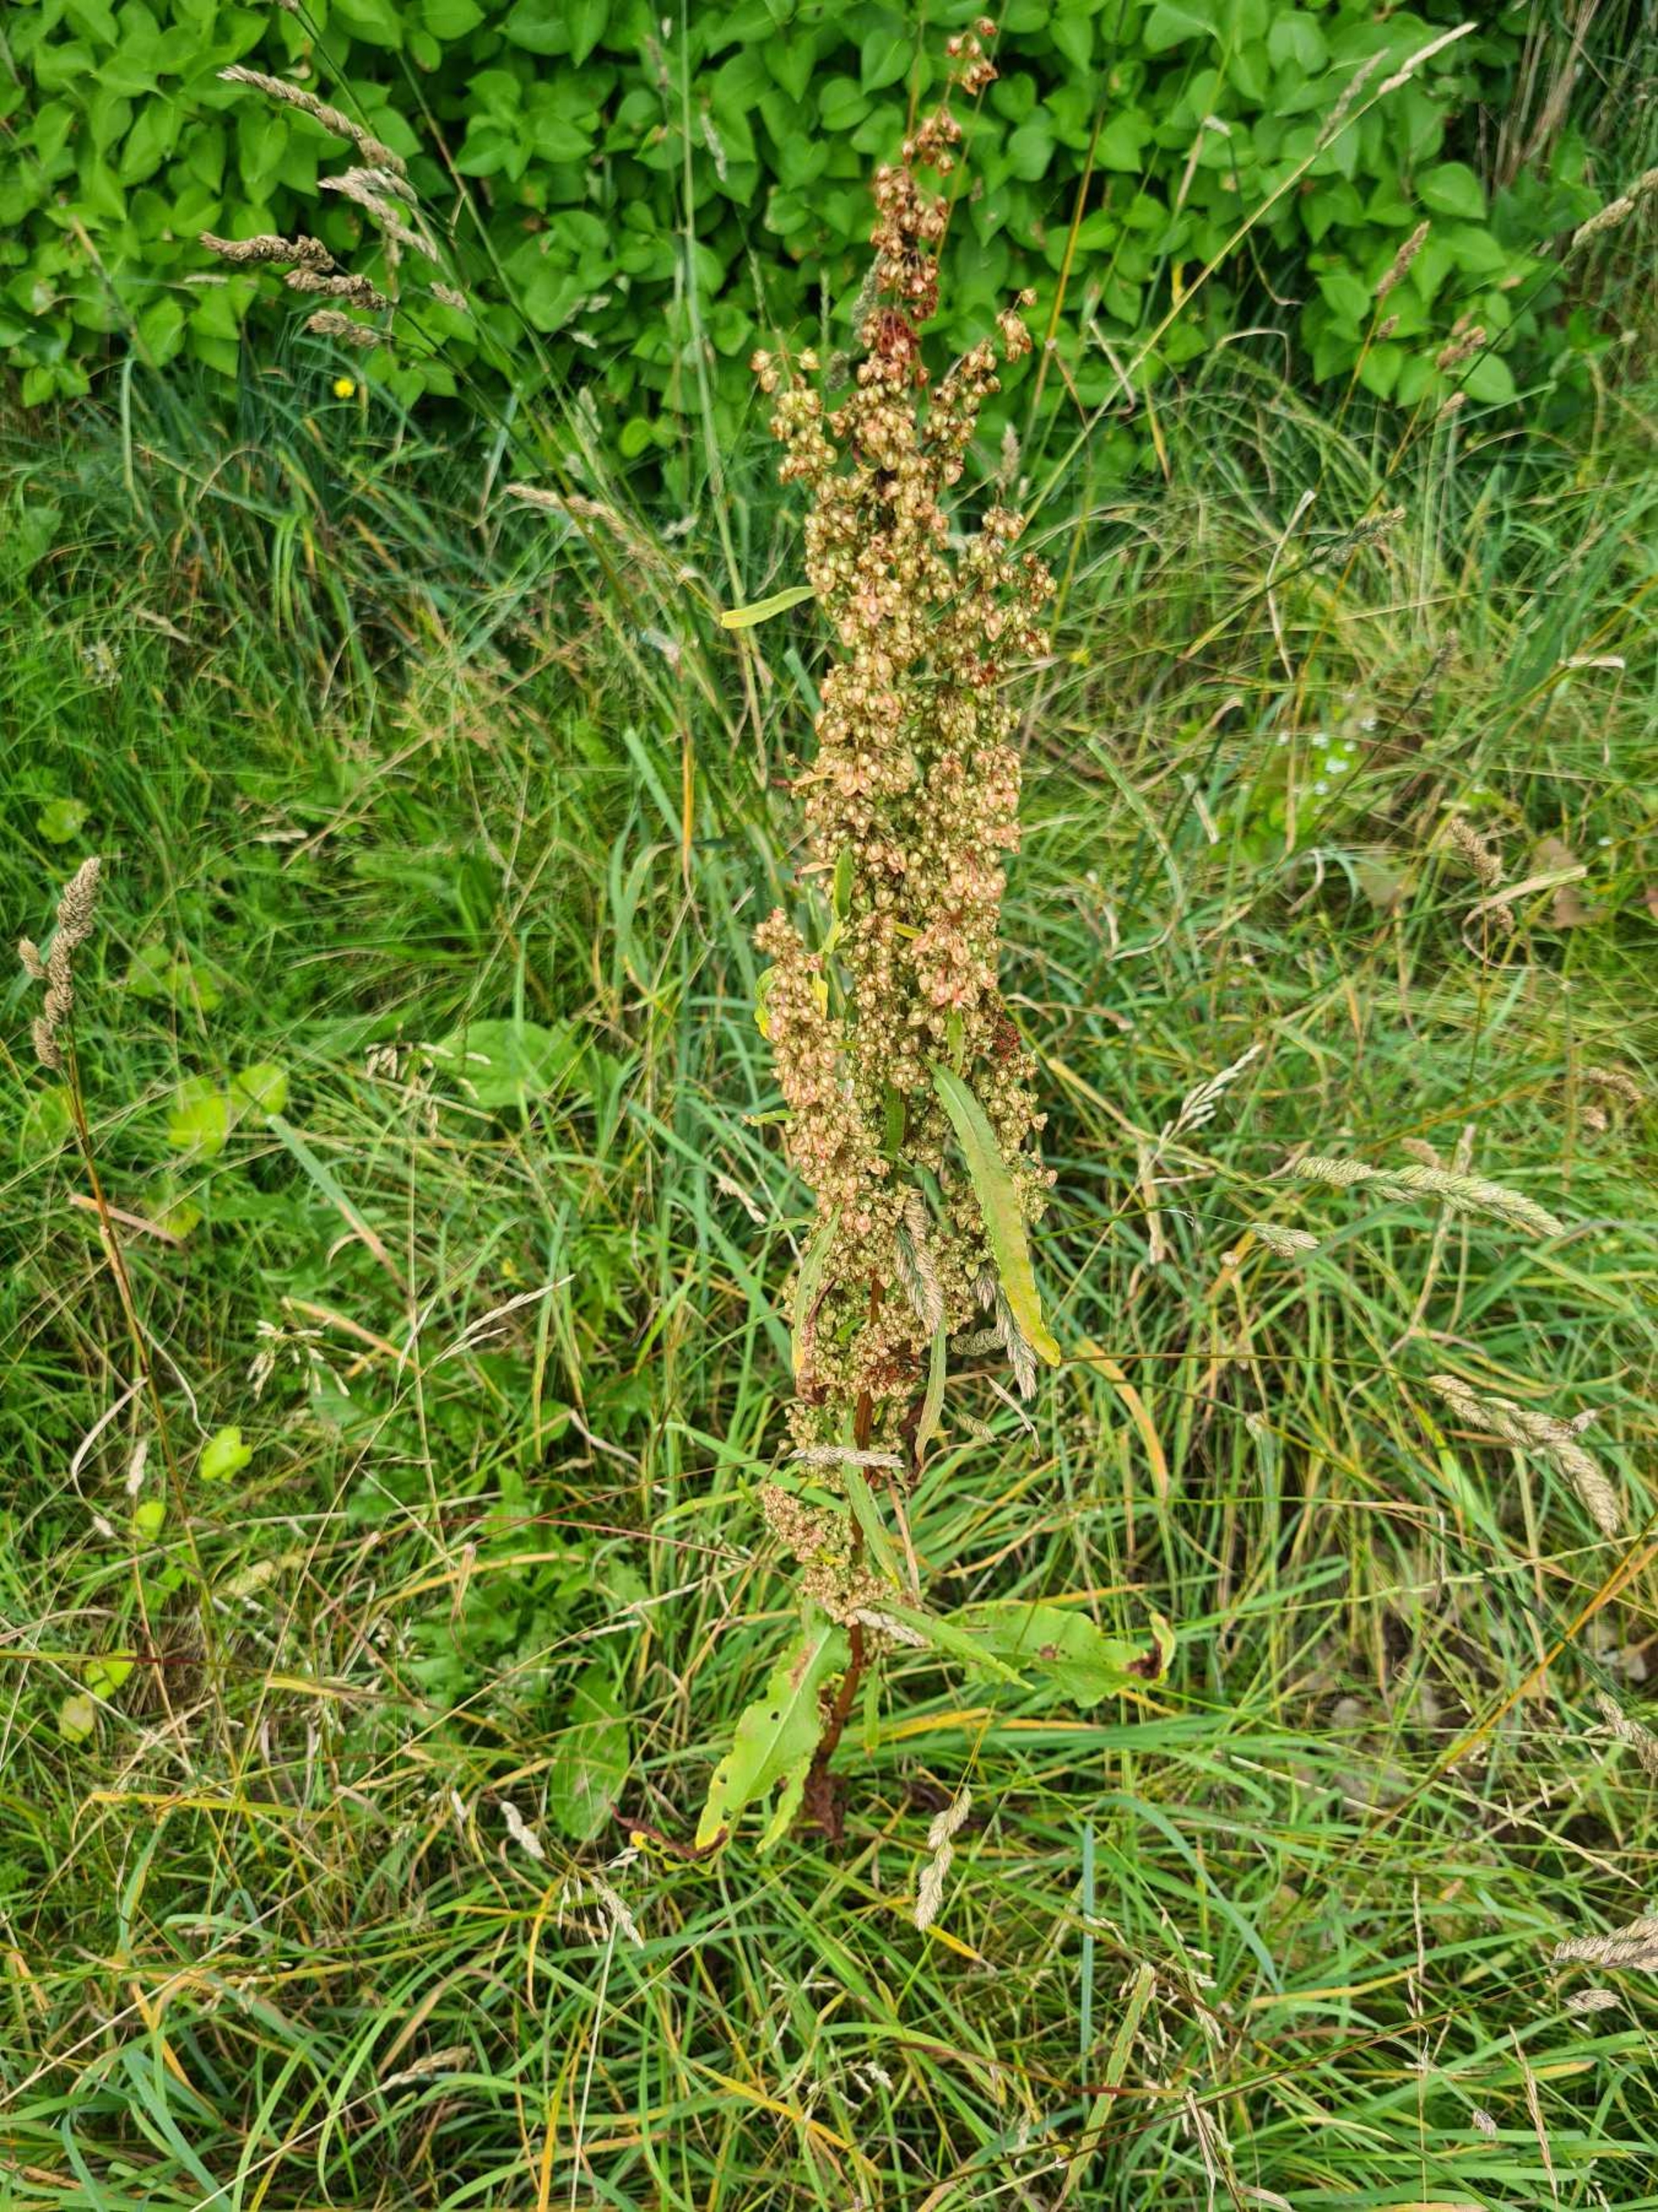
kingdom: Plantae
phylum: Tracheophyta
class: Magnoliopsida
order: Caryophyllales
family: Polygonaceae
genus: Rumex
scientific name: Rumex crispus
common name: Kruset skræppe
